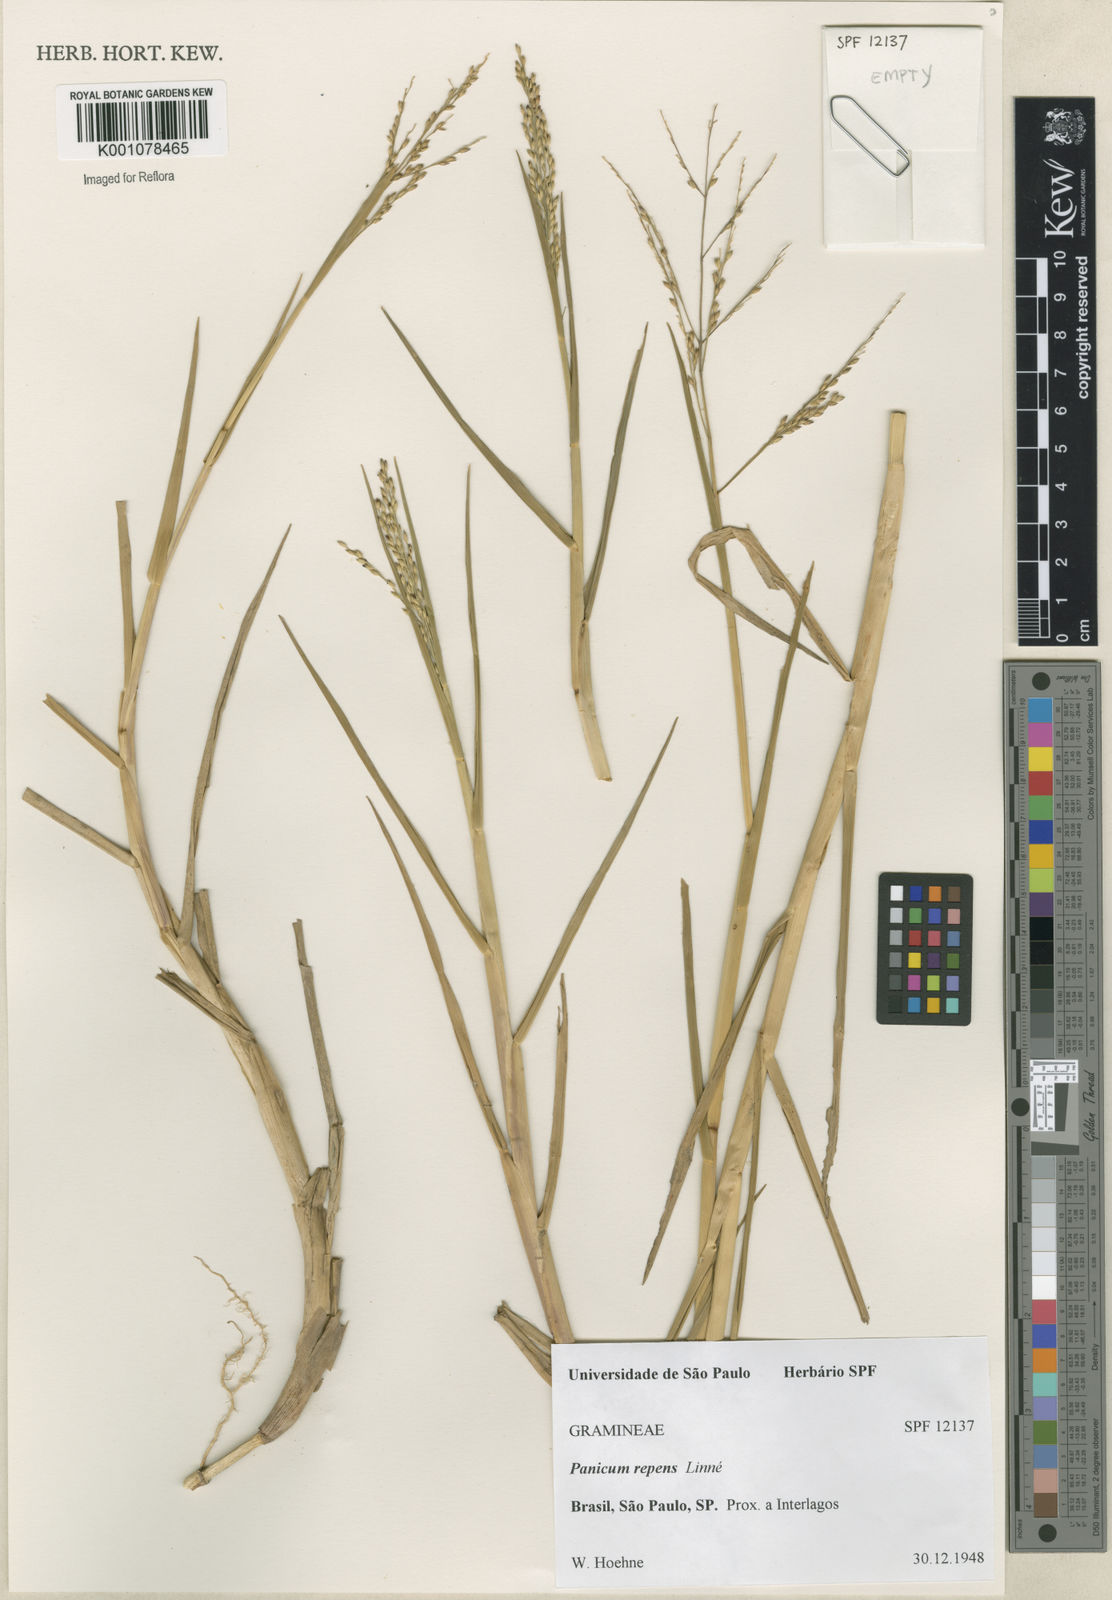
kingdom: Plantae
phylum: Tracheophyta
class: Liliopsida
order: Poales
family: Poaceae
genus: Panicum
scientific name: Panicum repens
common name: Torpedo grass
